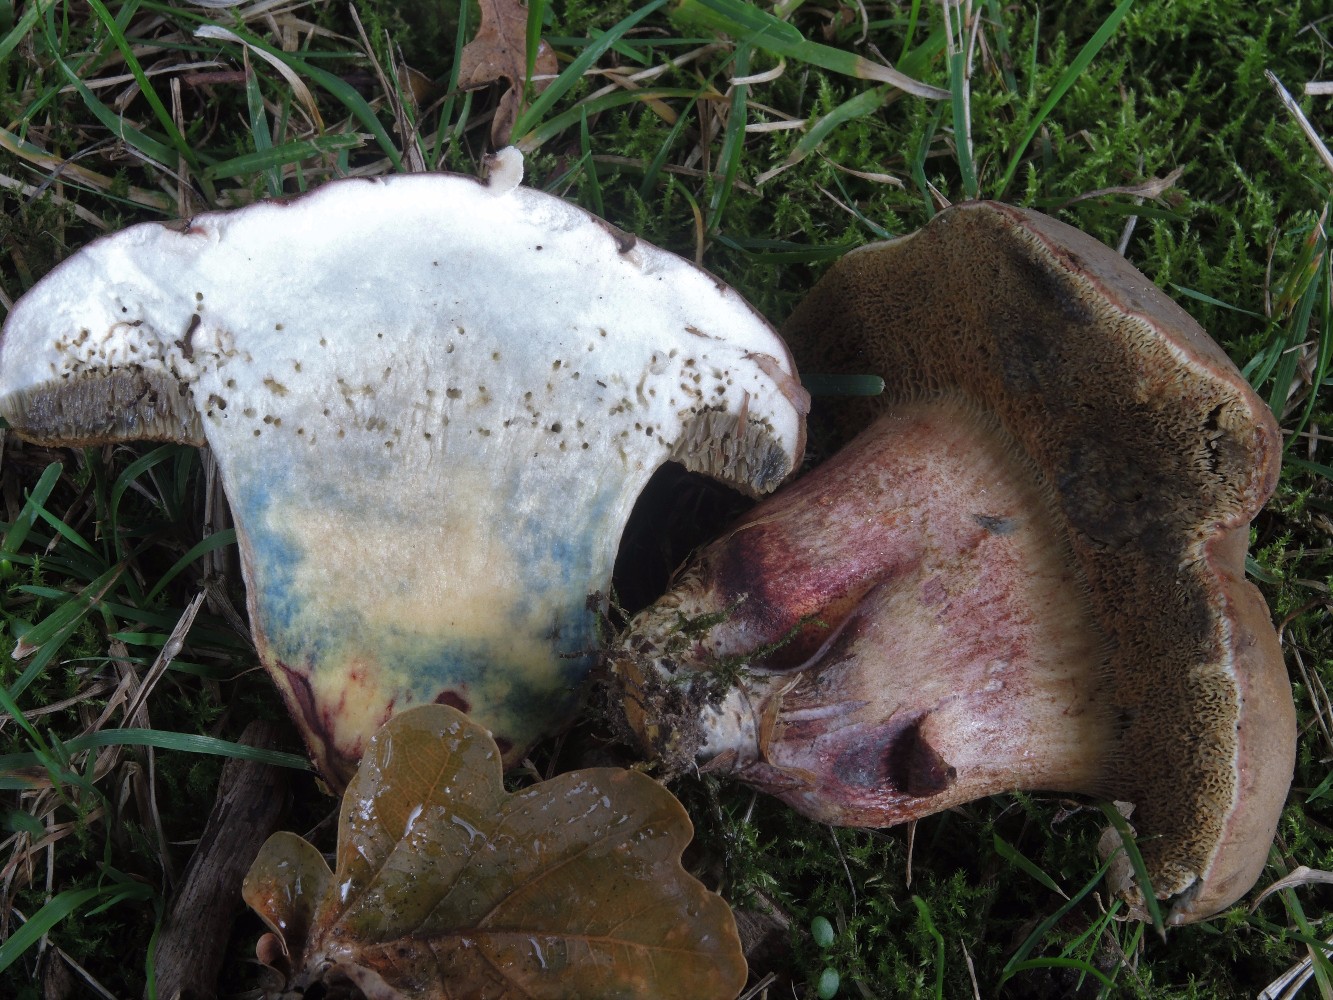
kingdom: Fungi
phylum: Basidiomycota
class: Agaricomycetes
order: Boletales
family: Boletaceae
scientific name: Boletaceae
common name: rørhatfamilien
